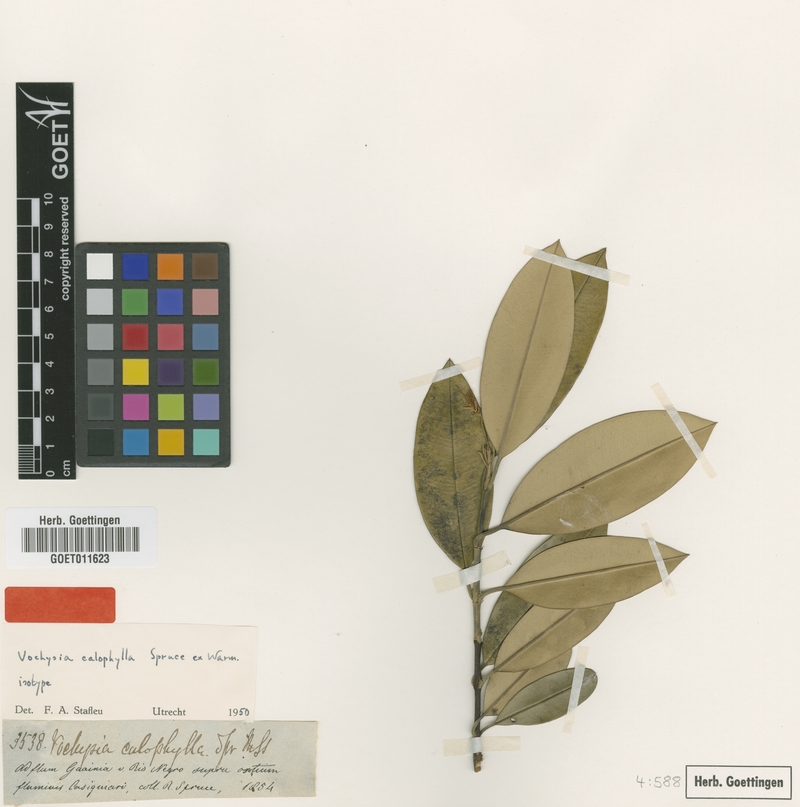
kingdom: Plantae
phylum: Tracheophyta
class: Magnoliopsida
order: Myrtales
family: Vochysiaceae
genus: Vochysia
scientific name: Vochysia calophylla
